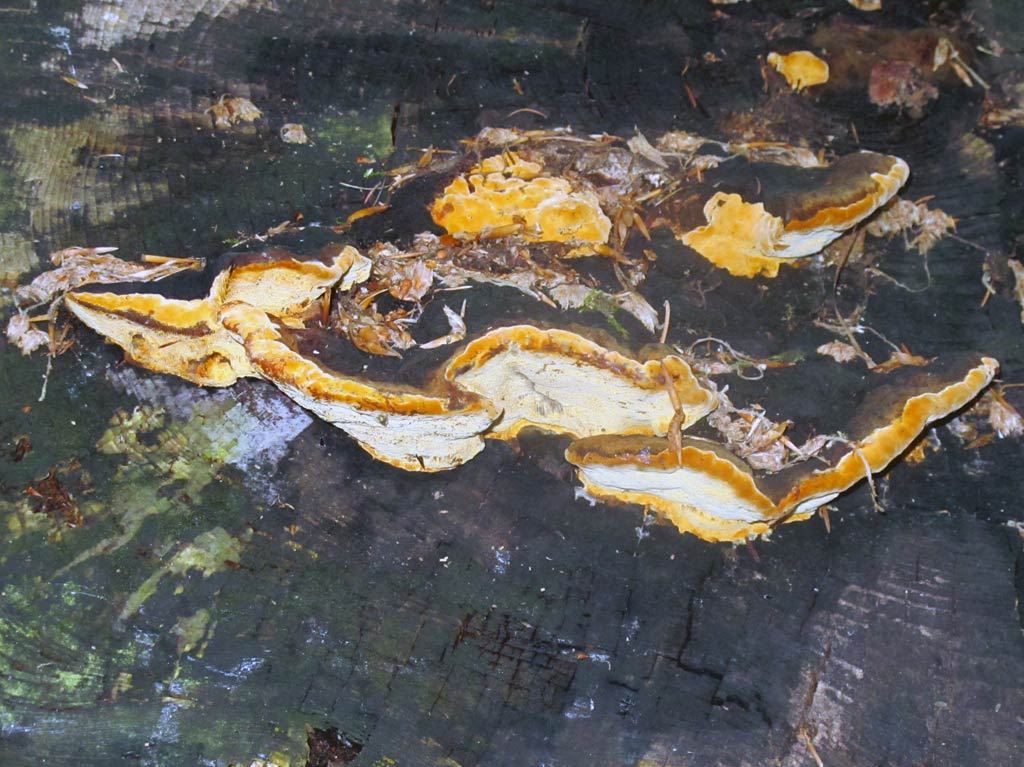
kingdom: Fungi
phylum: Basidiomycota
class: Agaricomycetes
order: Gloeophyllales
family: Gloeophyllaceae
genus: Gloeophyllum
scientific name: Gloeophyllum odoratum
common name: duftende korkhat
